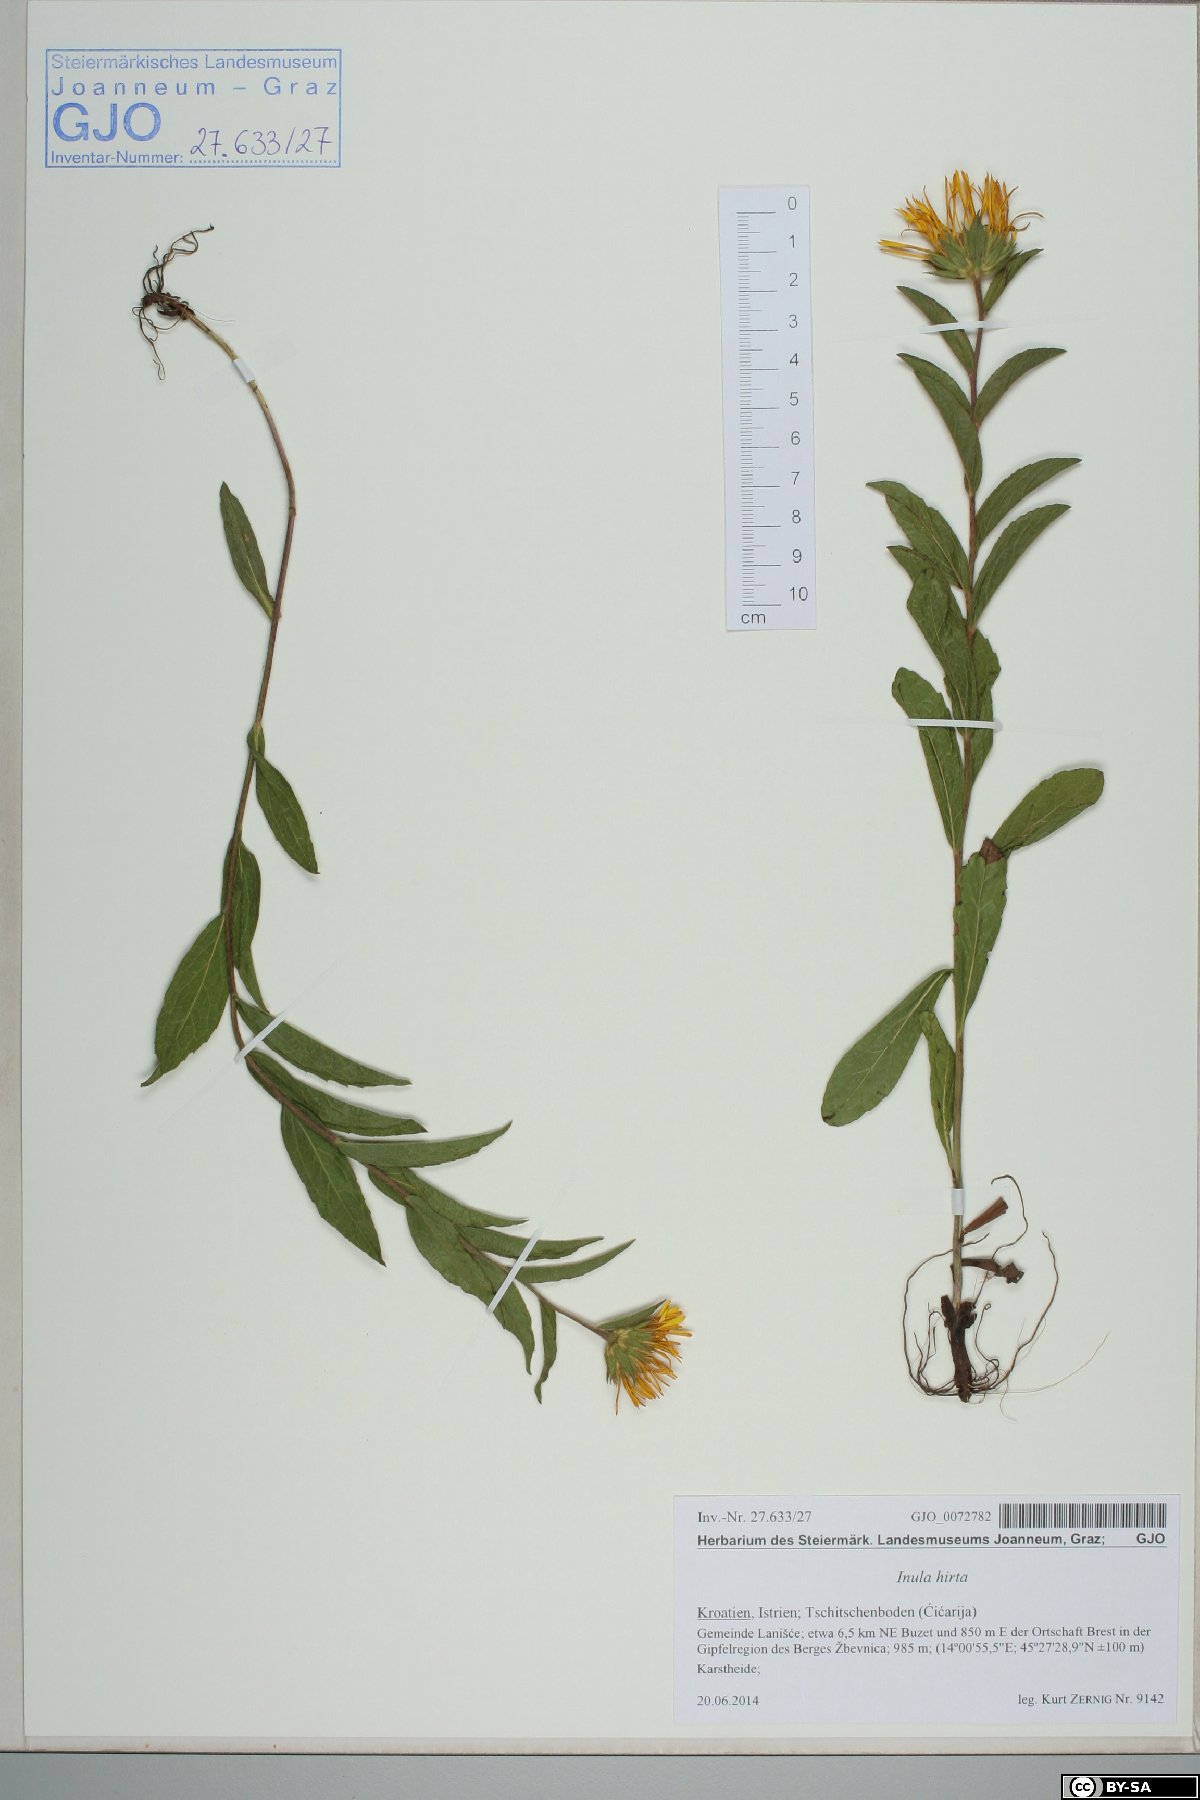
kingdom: Plantae
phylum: Tracheophyta
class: Magnoliopsida
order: Asterales
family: Asteraceae
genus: Pentanema
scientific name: Pentanema hirtum
